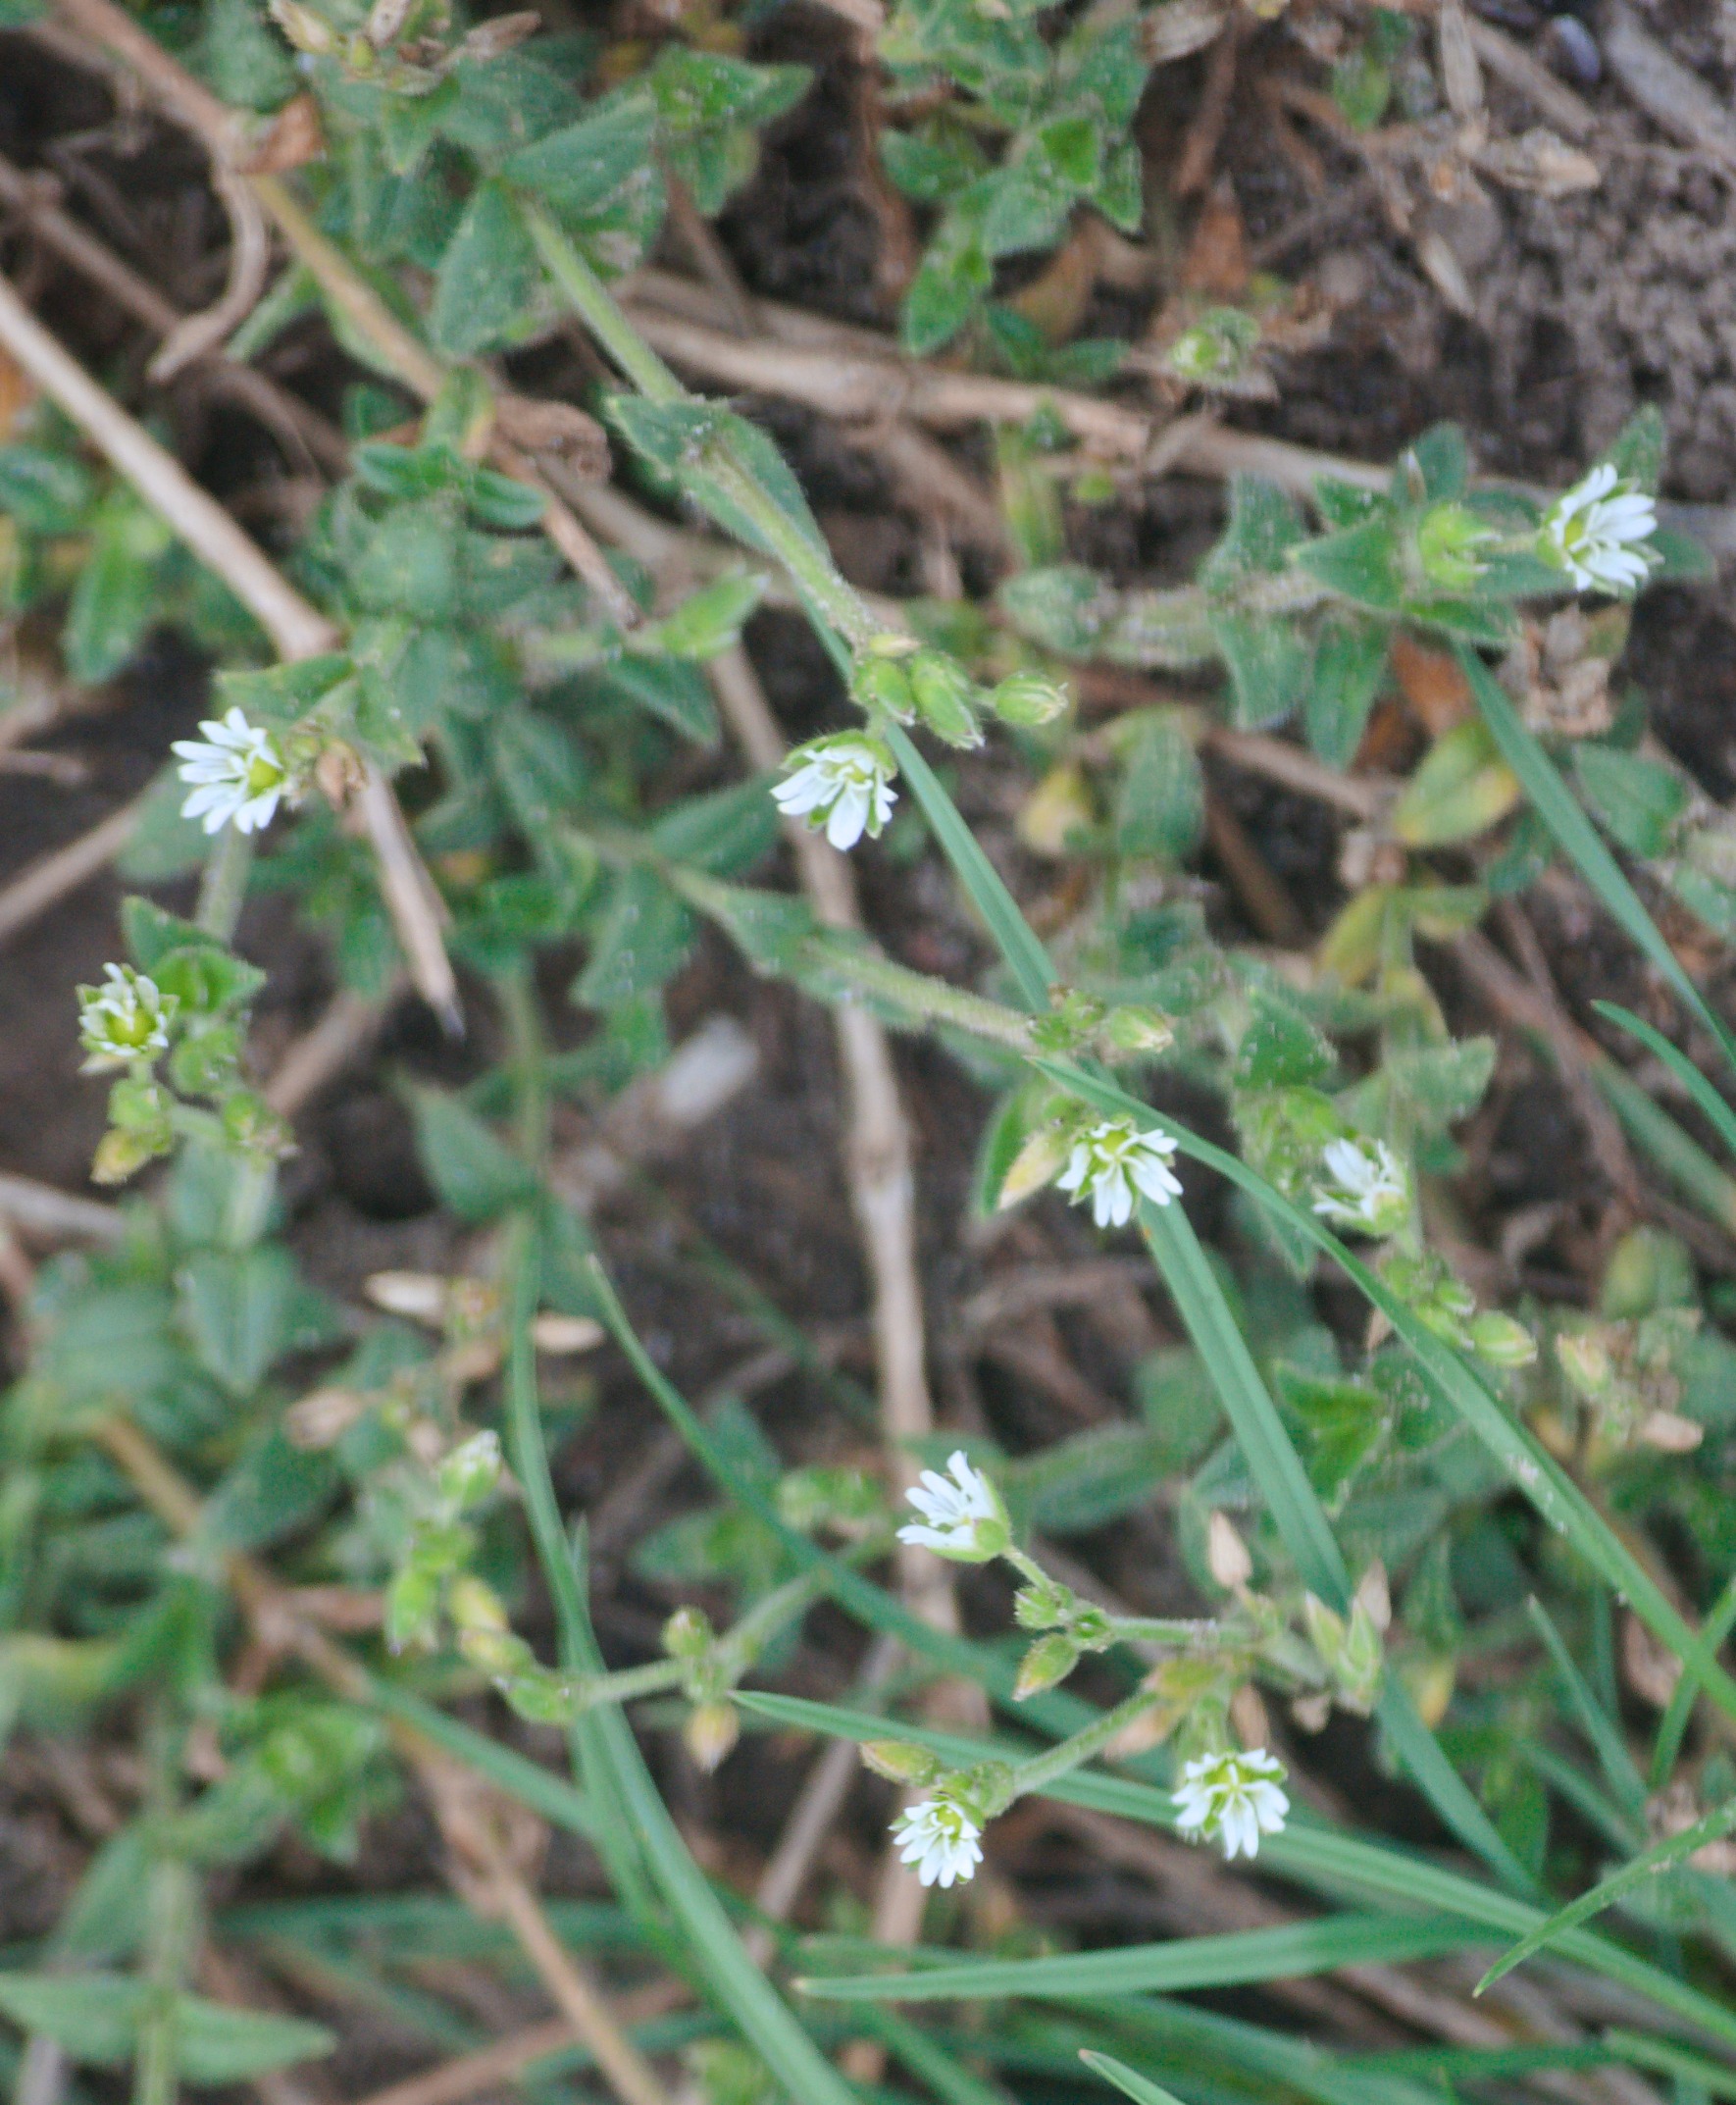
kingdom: Plantae
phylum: Tracheophyta
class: Magnoliopsida
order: Caryophyllales
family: Caryophyllaceae
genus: Cerastium
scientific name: Cerastium fontanum
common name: Almindelig hønsetarm
